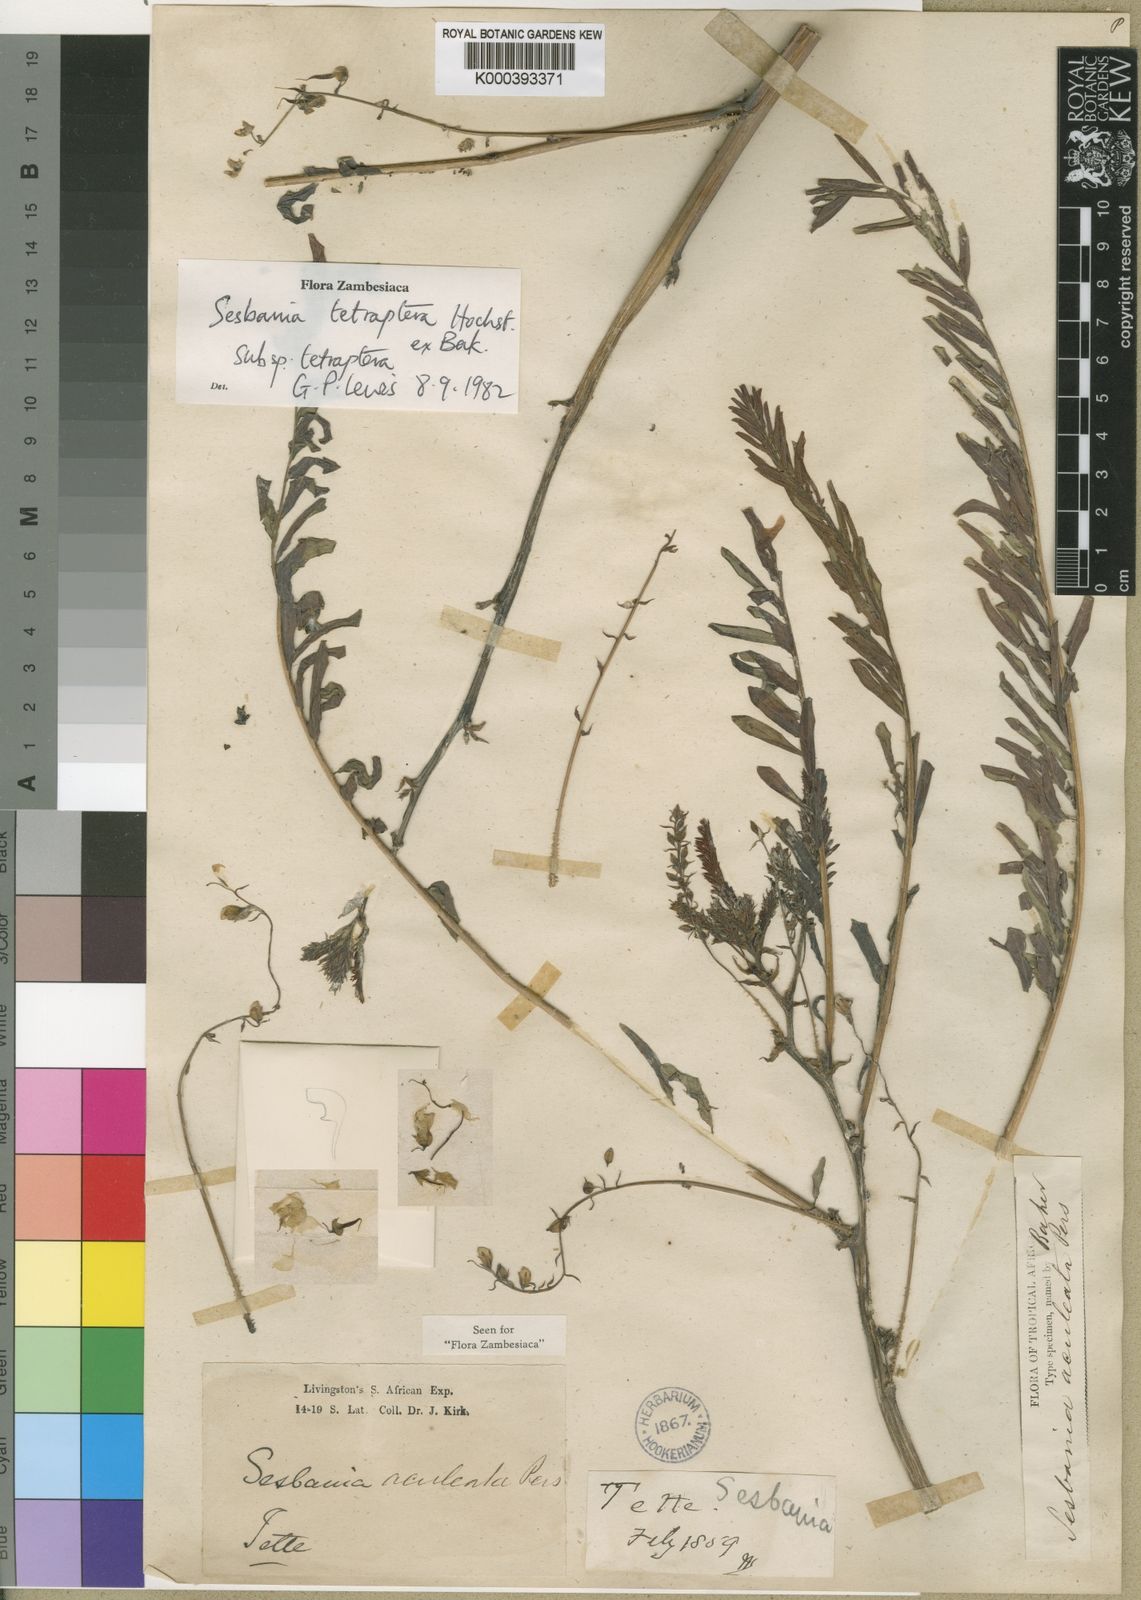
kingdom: Plantae
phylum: Tracheophyta
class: Magnoliopsida
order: Fabales
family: Fabaceae
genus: Sesbania
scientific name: Sesbania tetraptera
